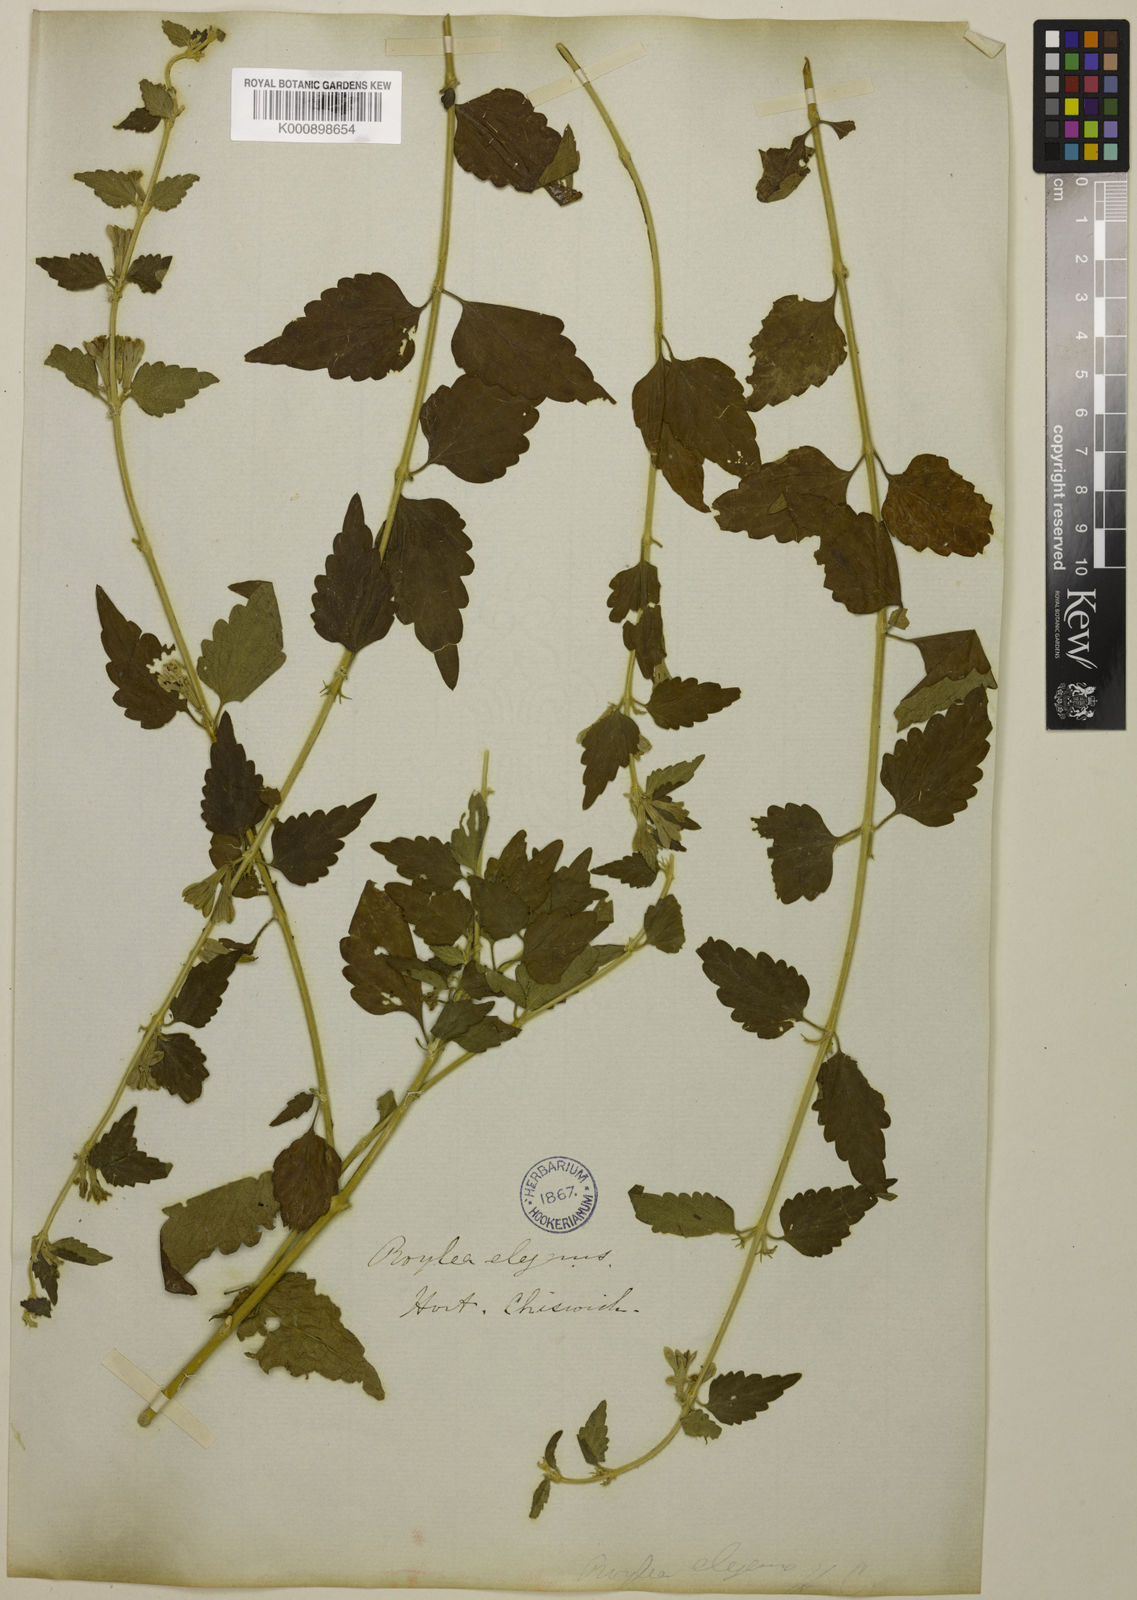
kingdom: Plantae
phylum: Tracheophyta
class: Magnoliopsida
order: Lamiales
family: Lamiaceae
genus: Roylea
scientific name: Roylea
